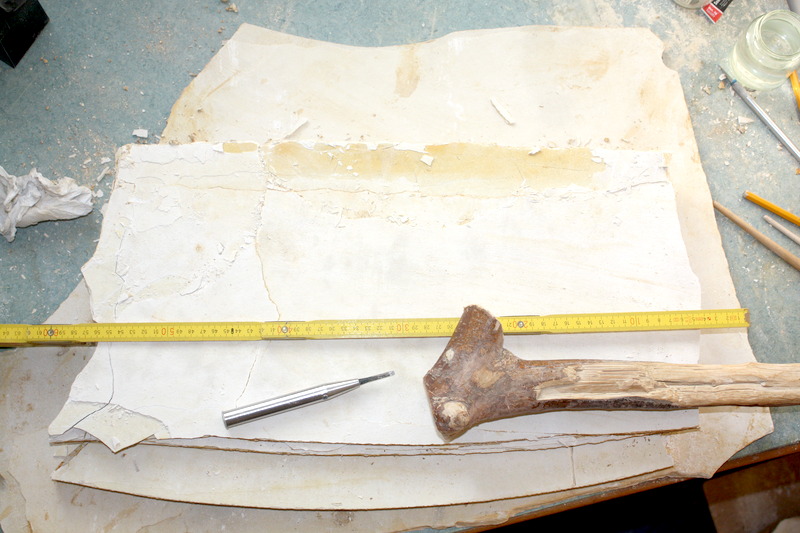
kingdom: Animalia
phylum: Chordata
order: Amiiformes
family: Amiidae
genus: Solnhofenamia
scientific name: Solnhofenamia elongata
